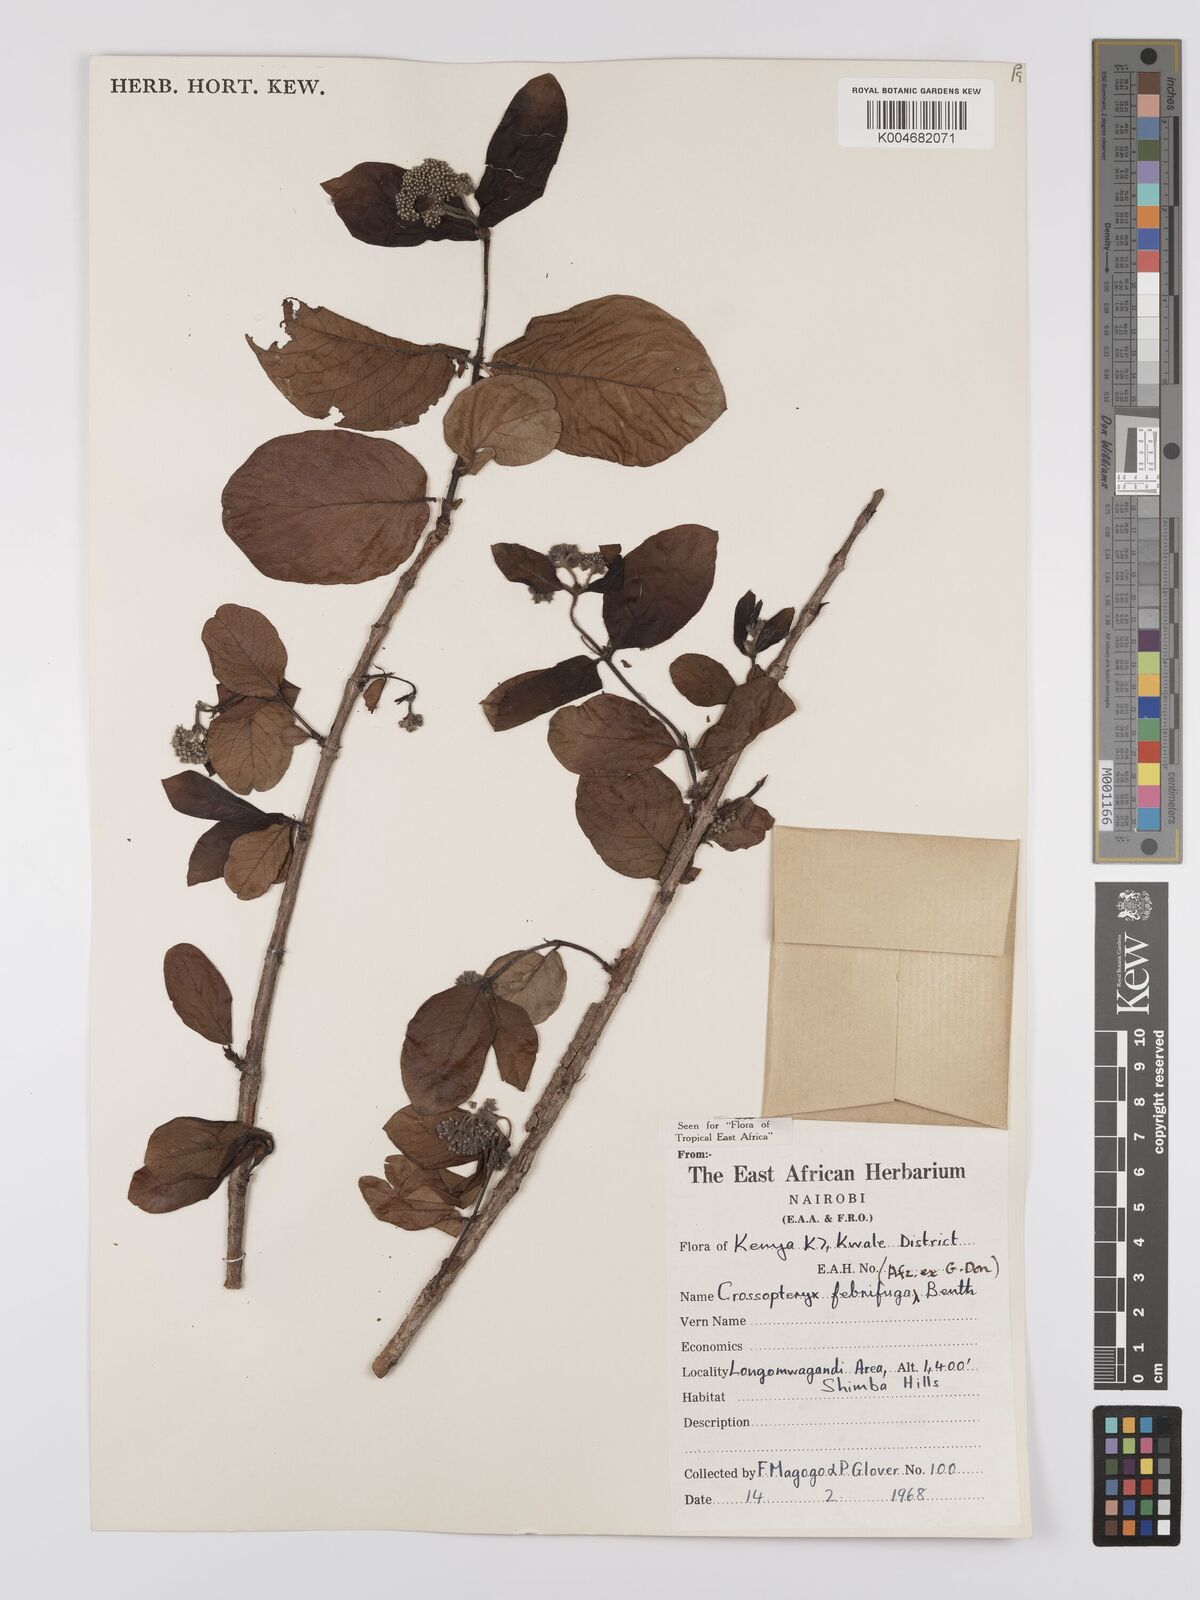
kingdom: Plantae
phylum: Tracheophyta
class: Magnoliopsida
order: Gentianales
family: Rubiaceae
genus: Crossopteryx
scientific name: Crossopteryx febrifuga
